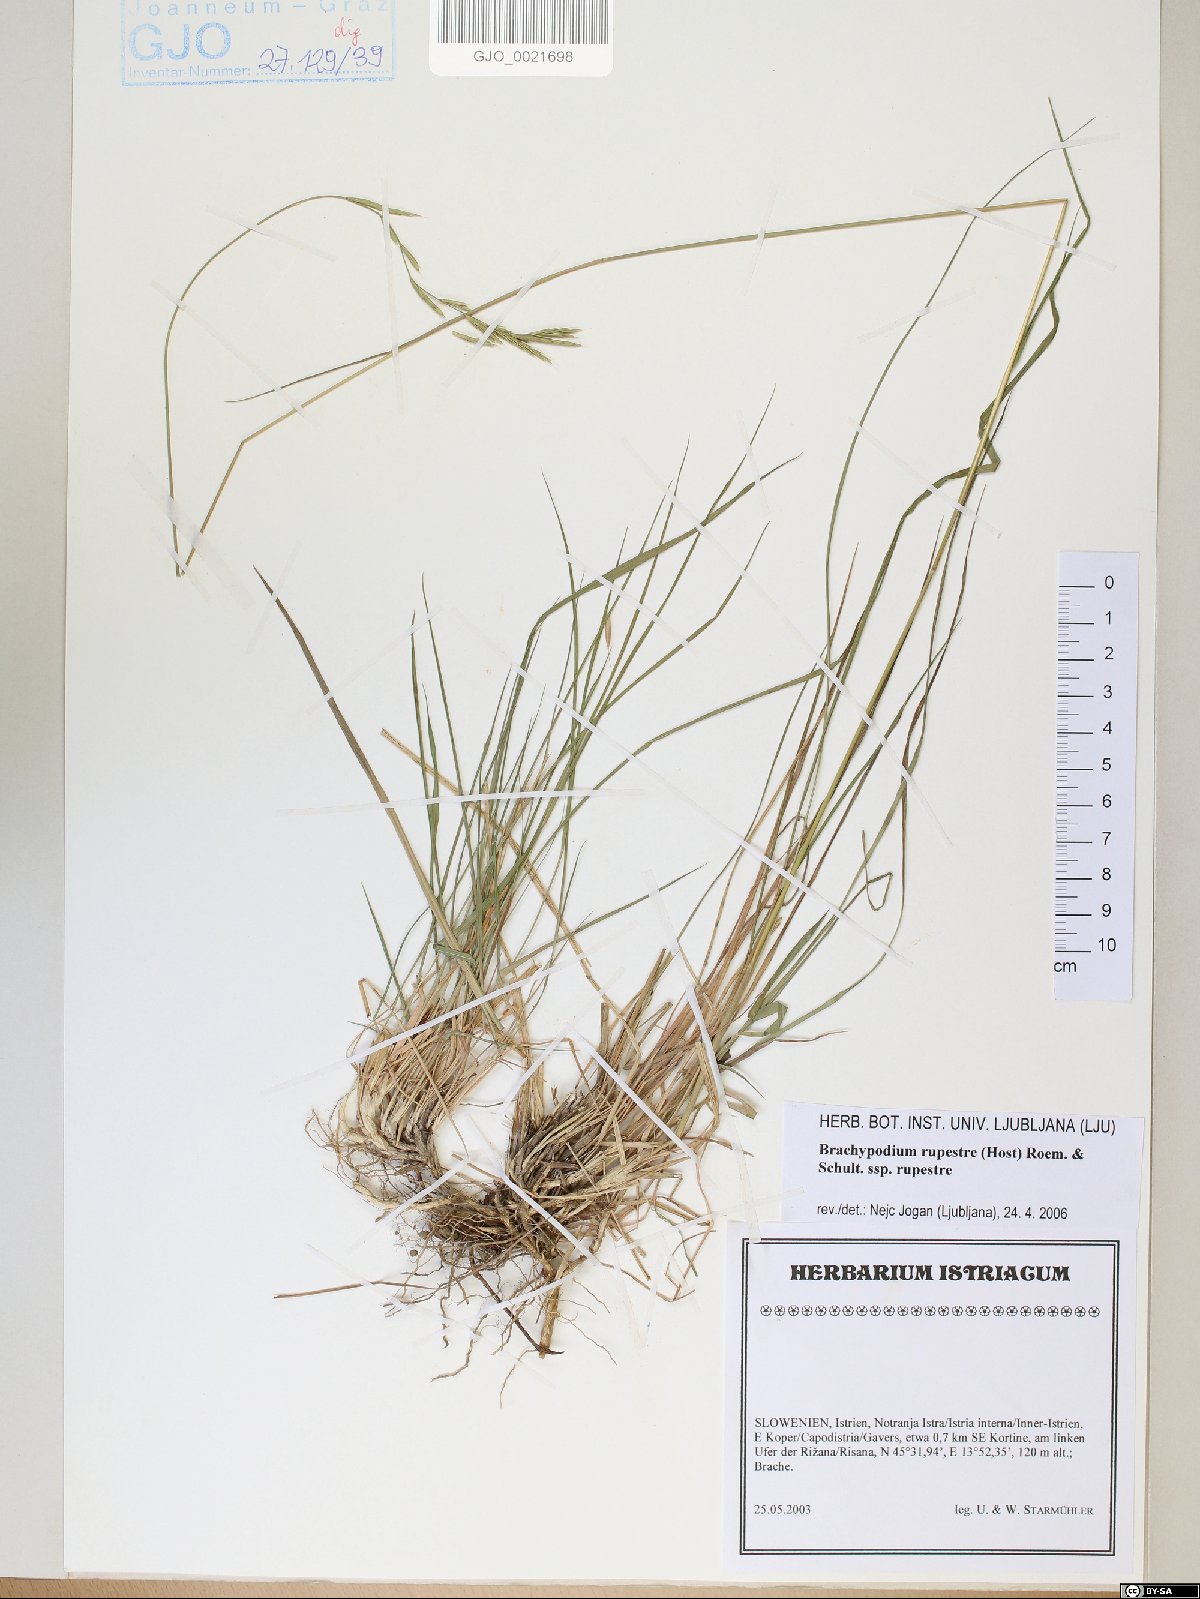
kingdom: Plantae
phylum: Tracheophyta
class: Liliopsida
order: Poales
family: Poaceae
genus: Brachypodium
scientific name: Brachypodium pinnatum
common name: Tor grass
